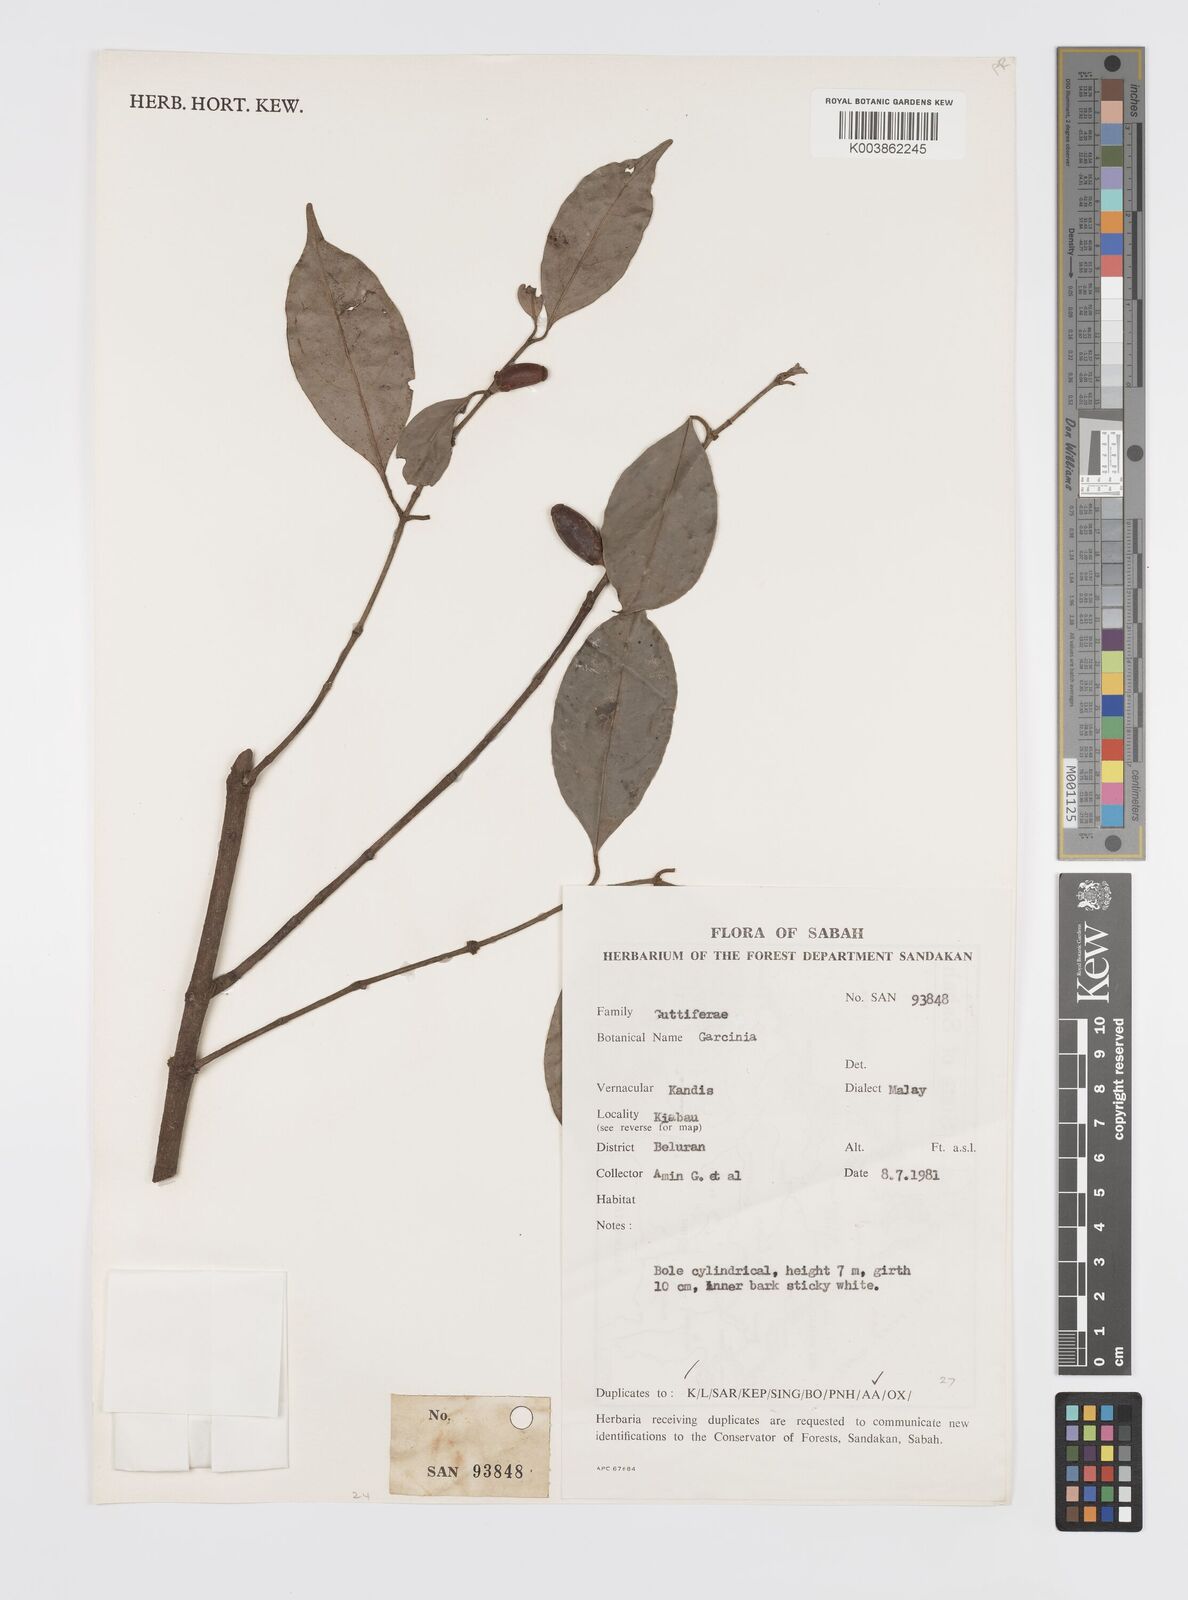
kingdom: Plantae
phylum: Tracheophyta
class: Magnoliopsida
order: Malpighiales
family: Clusiaceae
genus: Garcinia
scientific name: Garcinia
